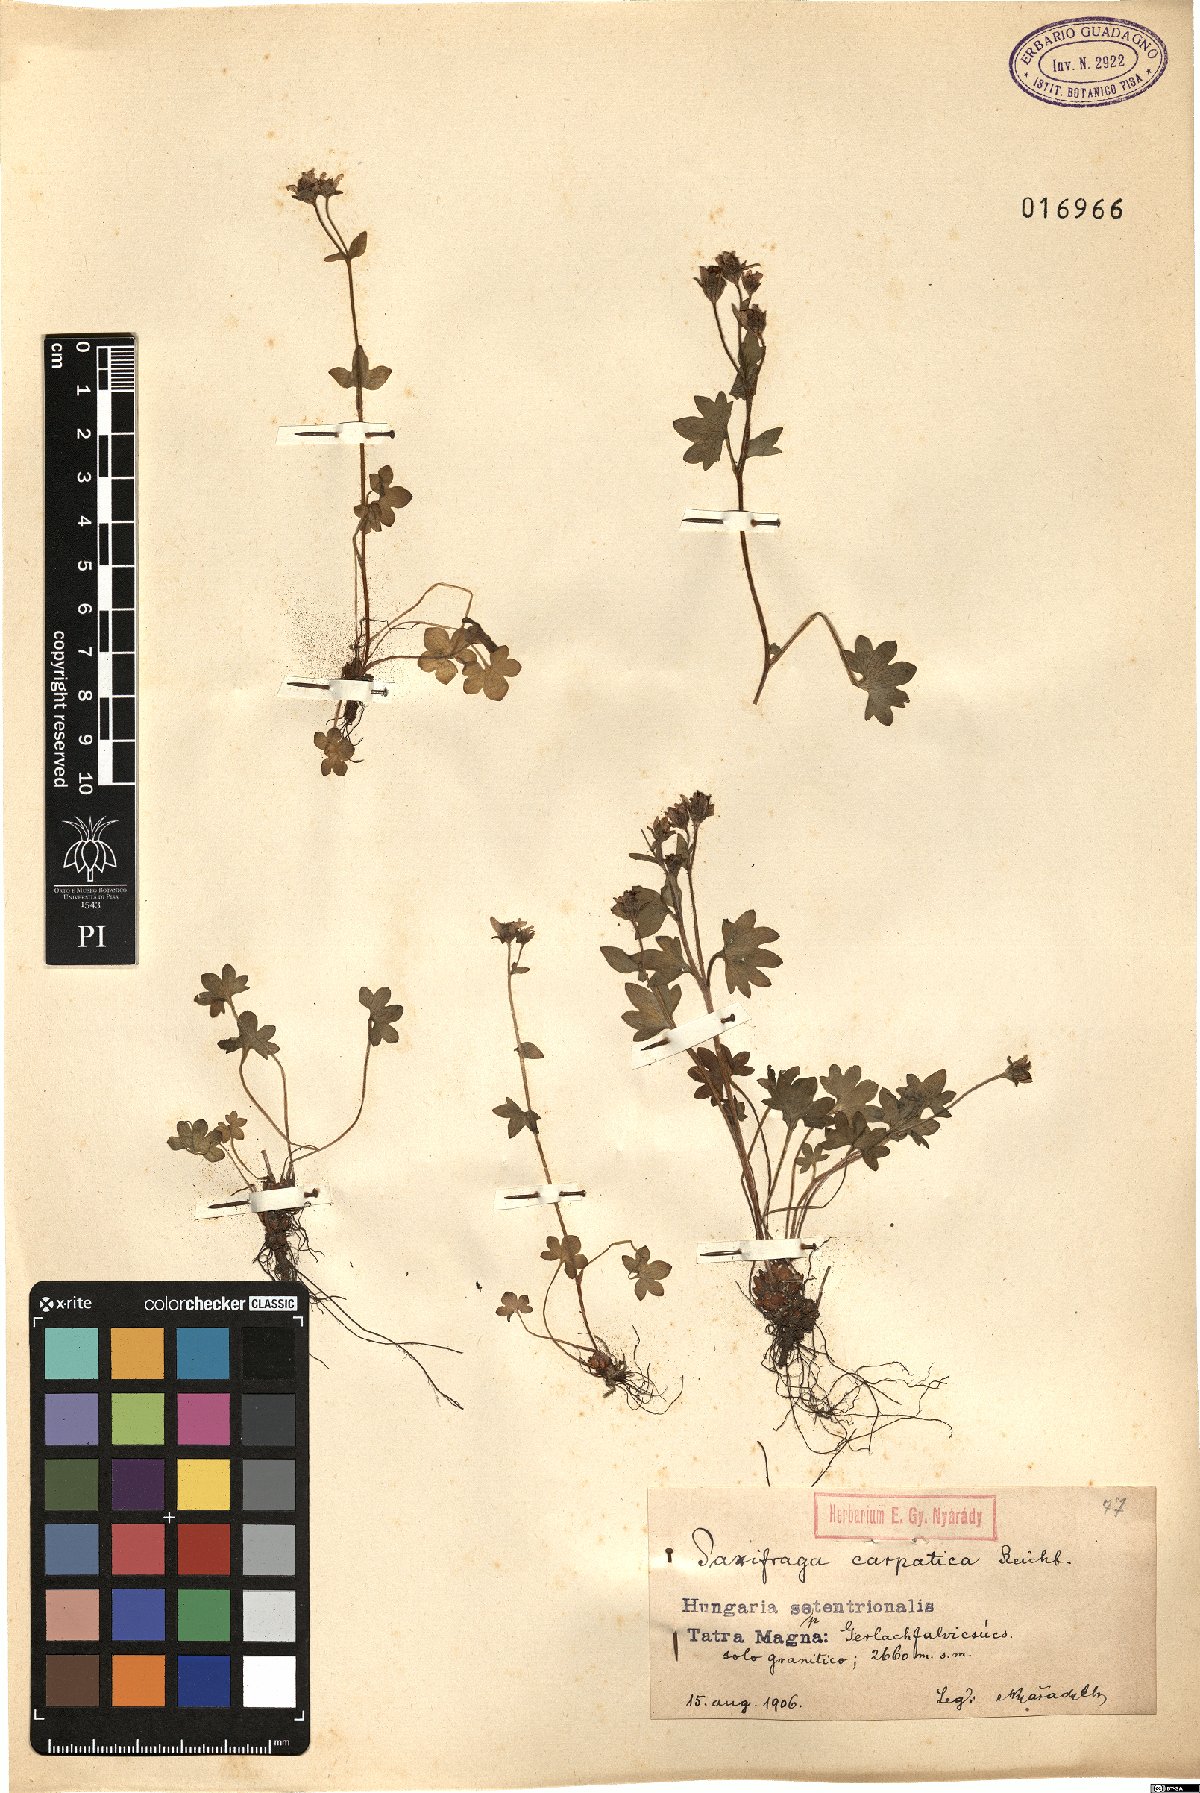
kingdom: Plantae
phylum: Tracheophyta
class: Magnoliopsida
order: Saxifragales
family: Saxifragaceae
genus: Saxifraga
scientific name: Saxifraga carpatica
